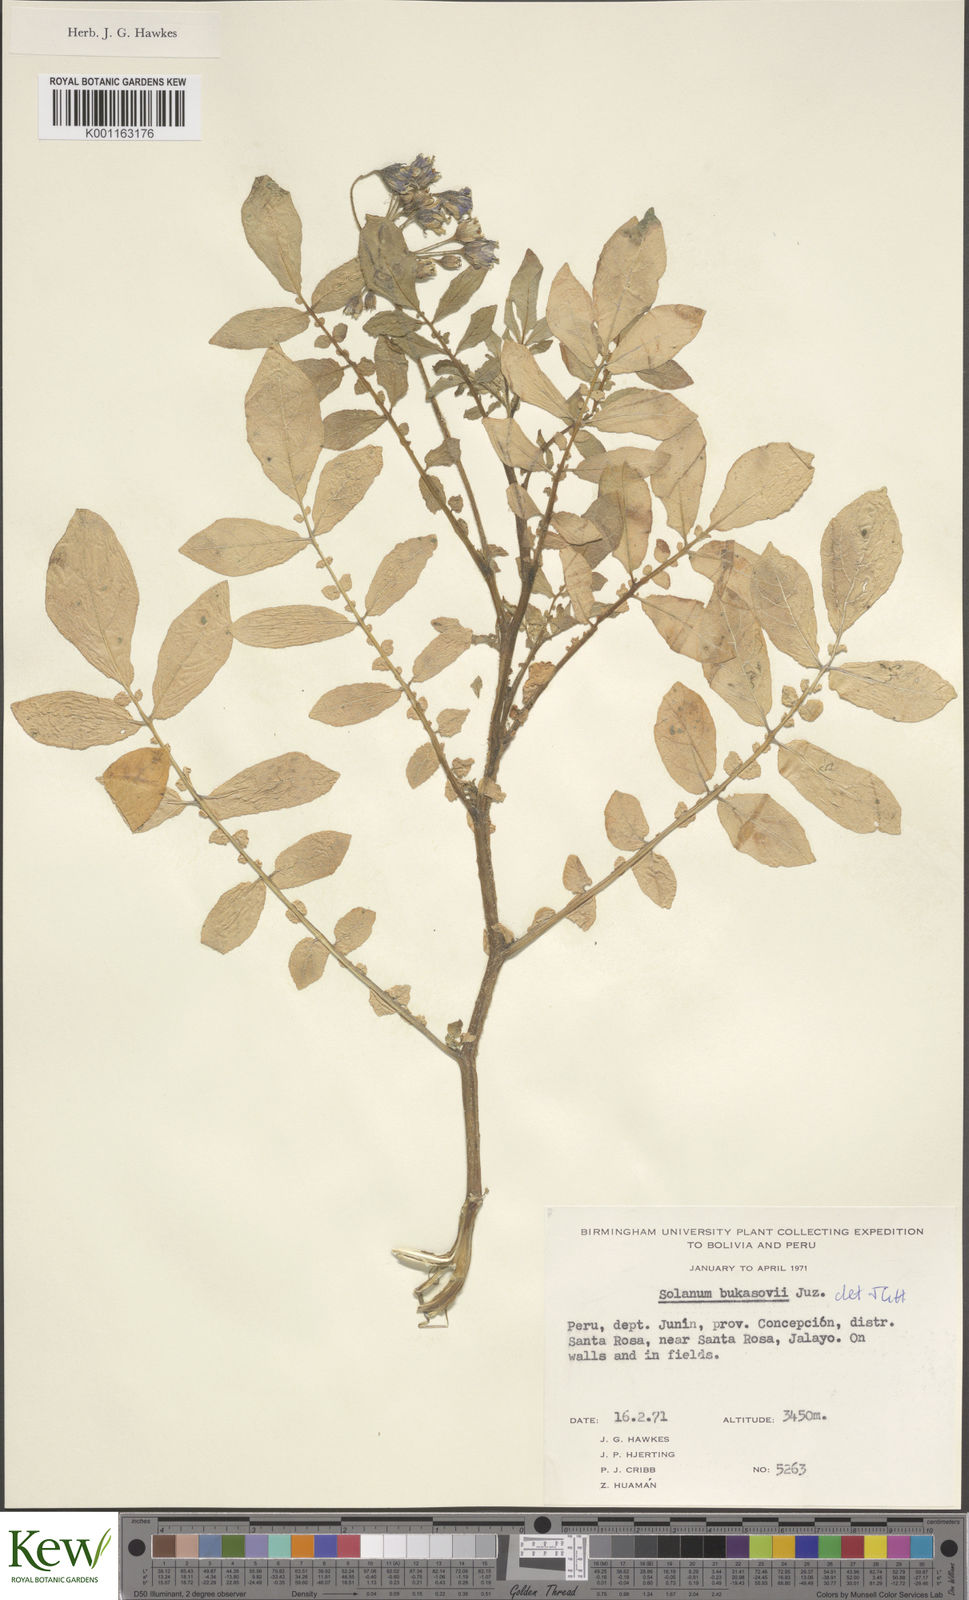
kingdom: Plantae
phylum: Tracheophyta
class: Magnoliopsida
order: Solanales
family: Solanaceae
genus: Solanum
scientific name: Solanum candolleanum
